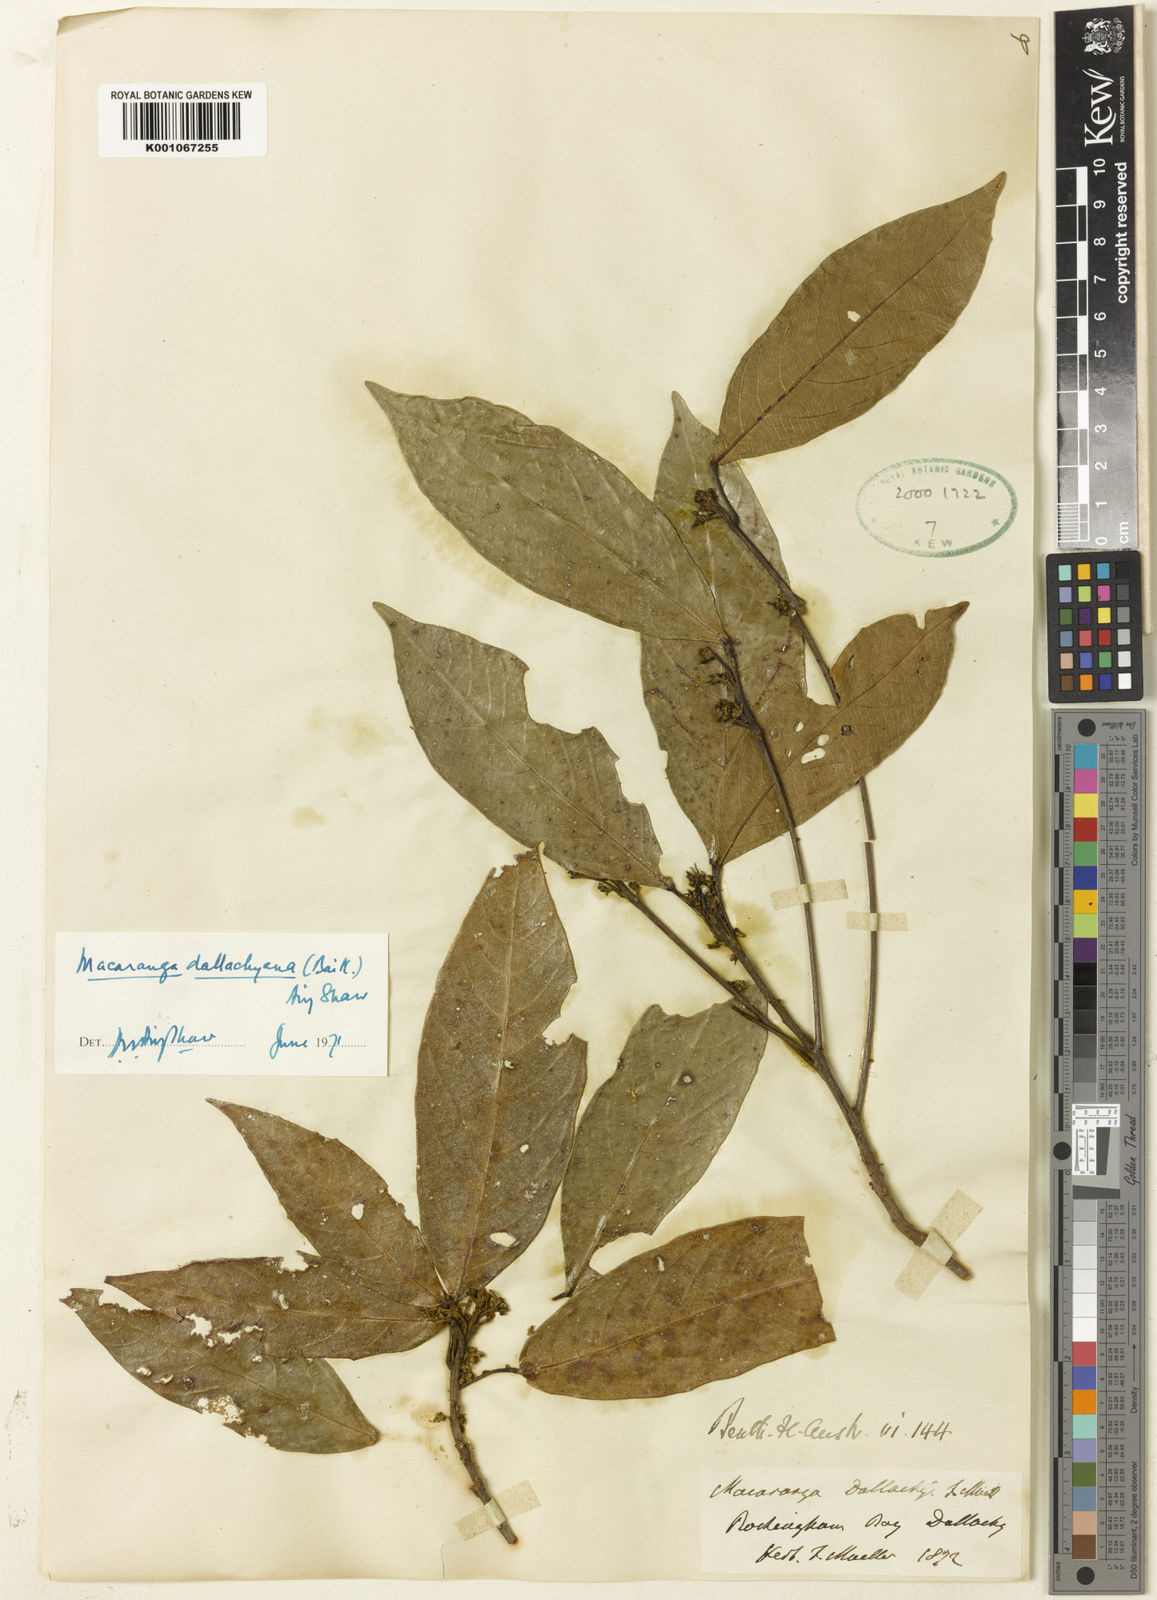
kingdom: Plantae
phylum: Tracheophyta
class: Magnoliopsida
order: Malpighiales
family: Euphorbiaceae
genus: Macaranga
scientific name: Macaranga dallachyana
